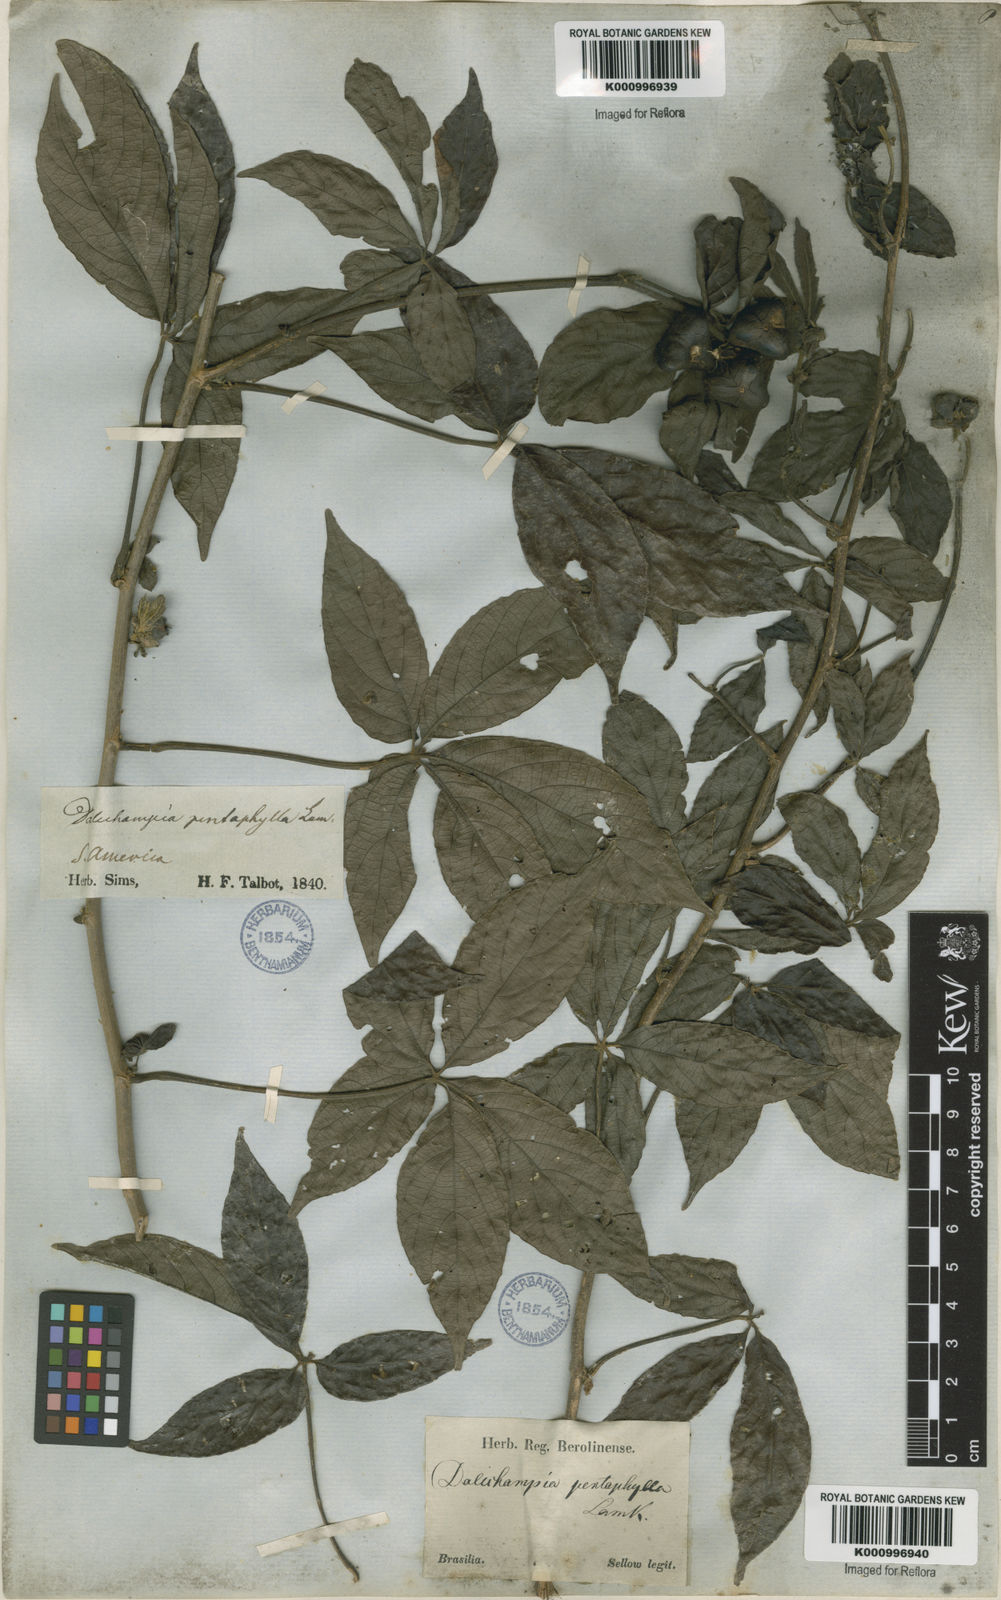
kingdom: Plantae
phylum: Tracheophyta
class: Magnoliopsida
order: Malpighiales
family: Euphorbiaceae
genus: Dalechampia
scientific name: Dalechampia pentaphylla
